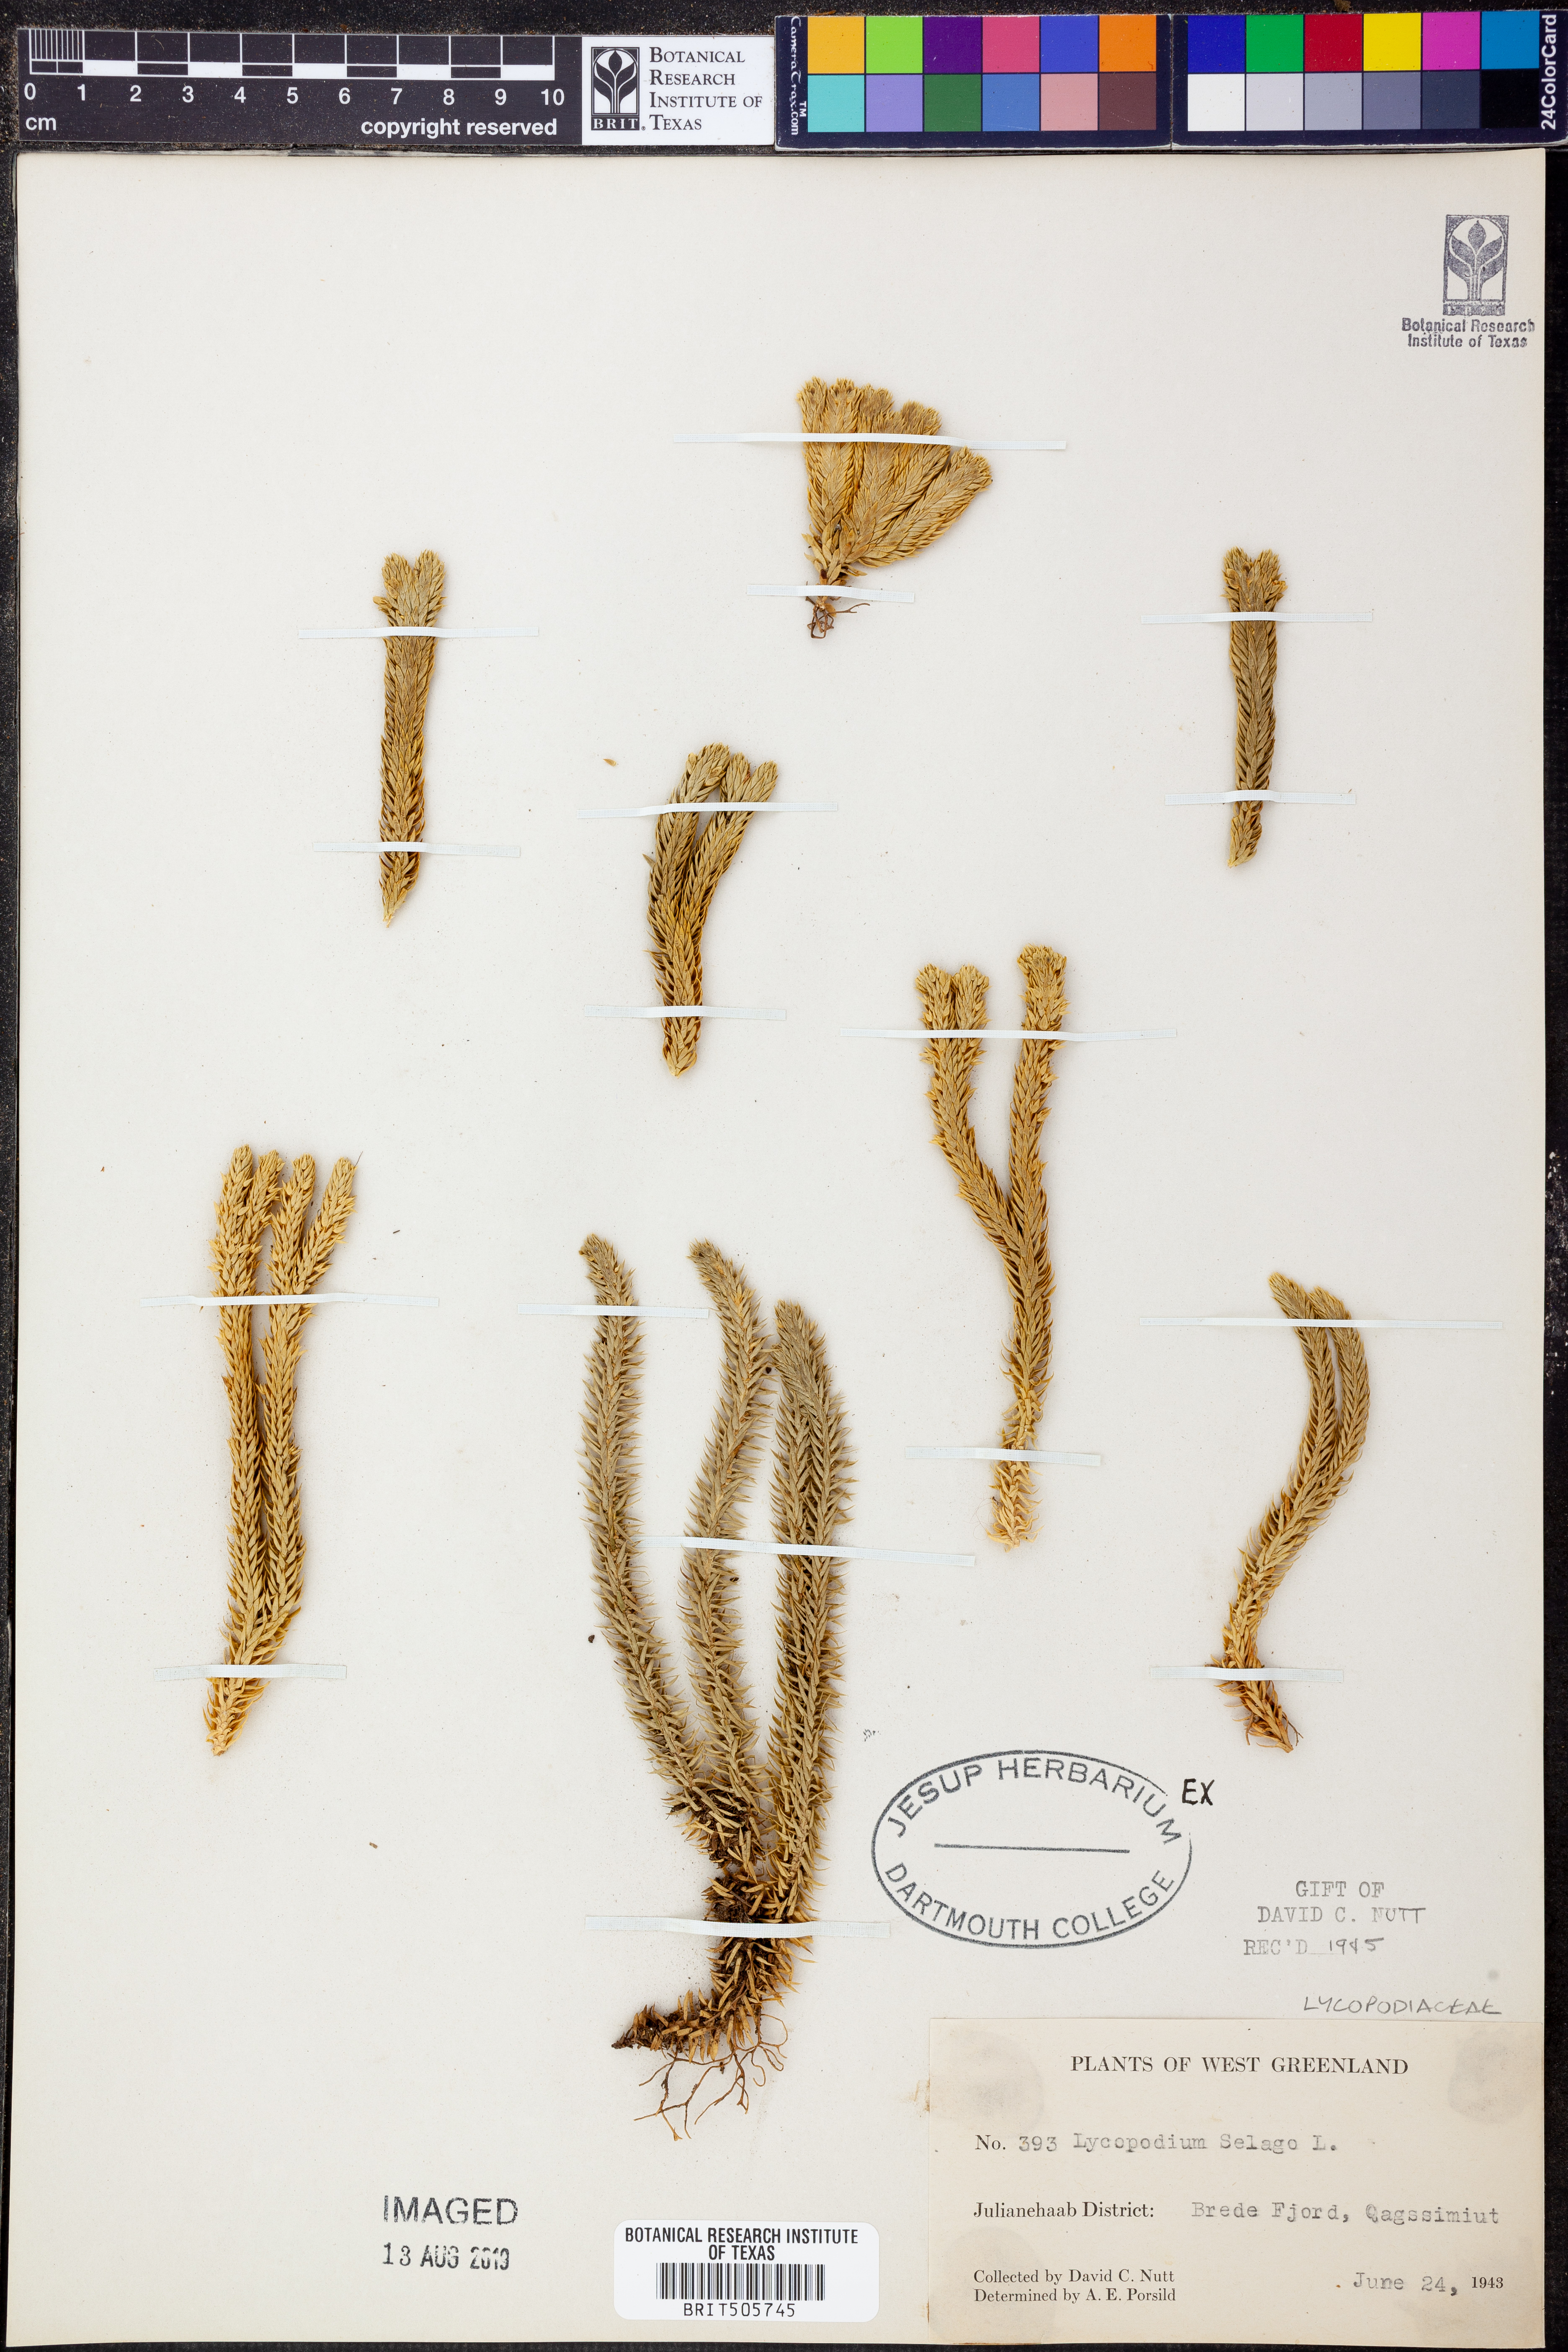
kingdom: Plantae
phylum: Tracheophyta
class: Lycopodiopsida
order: Lycopodiales
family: Lycopodiaceae
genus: Huperzia
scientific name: Huperzia selago
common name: Northern firmoss
